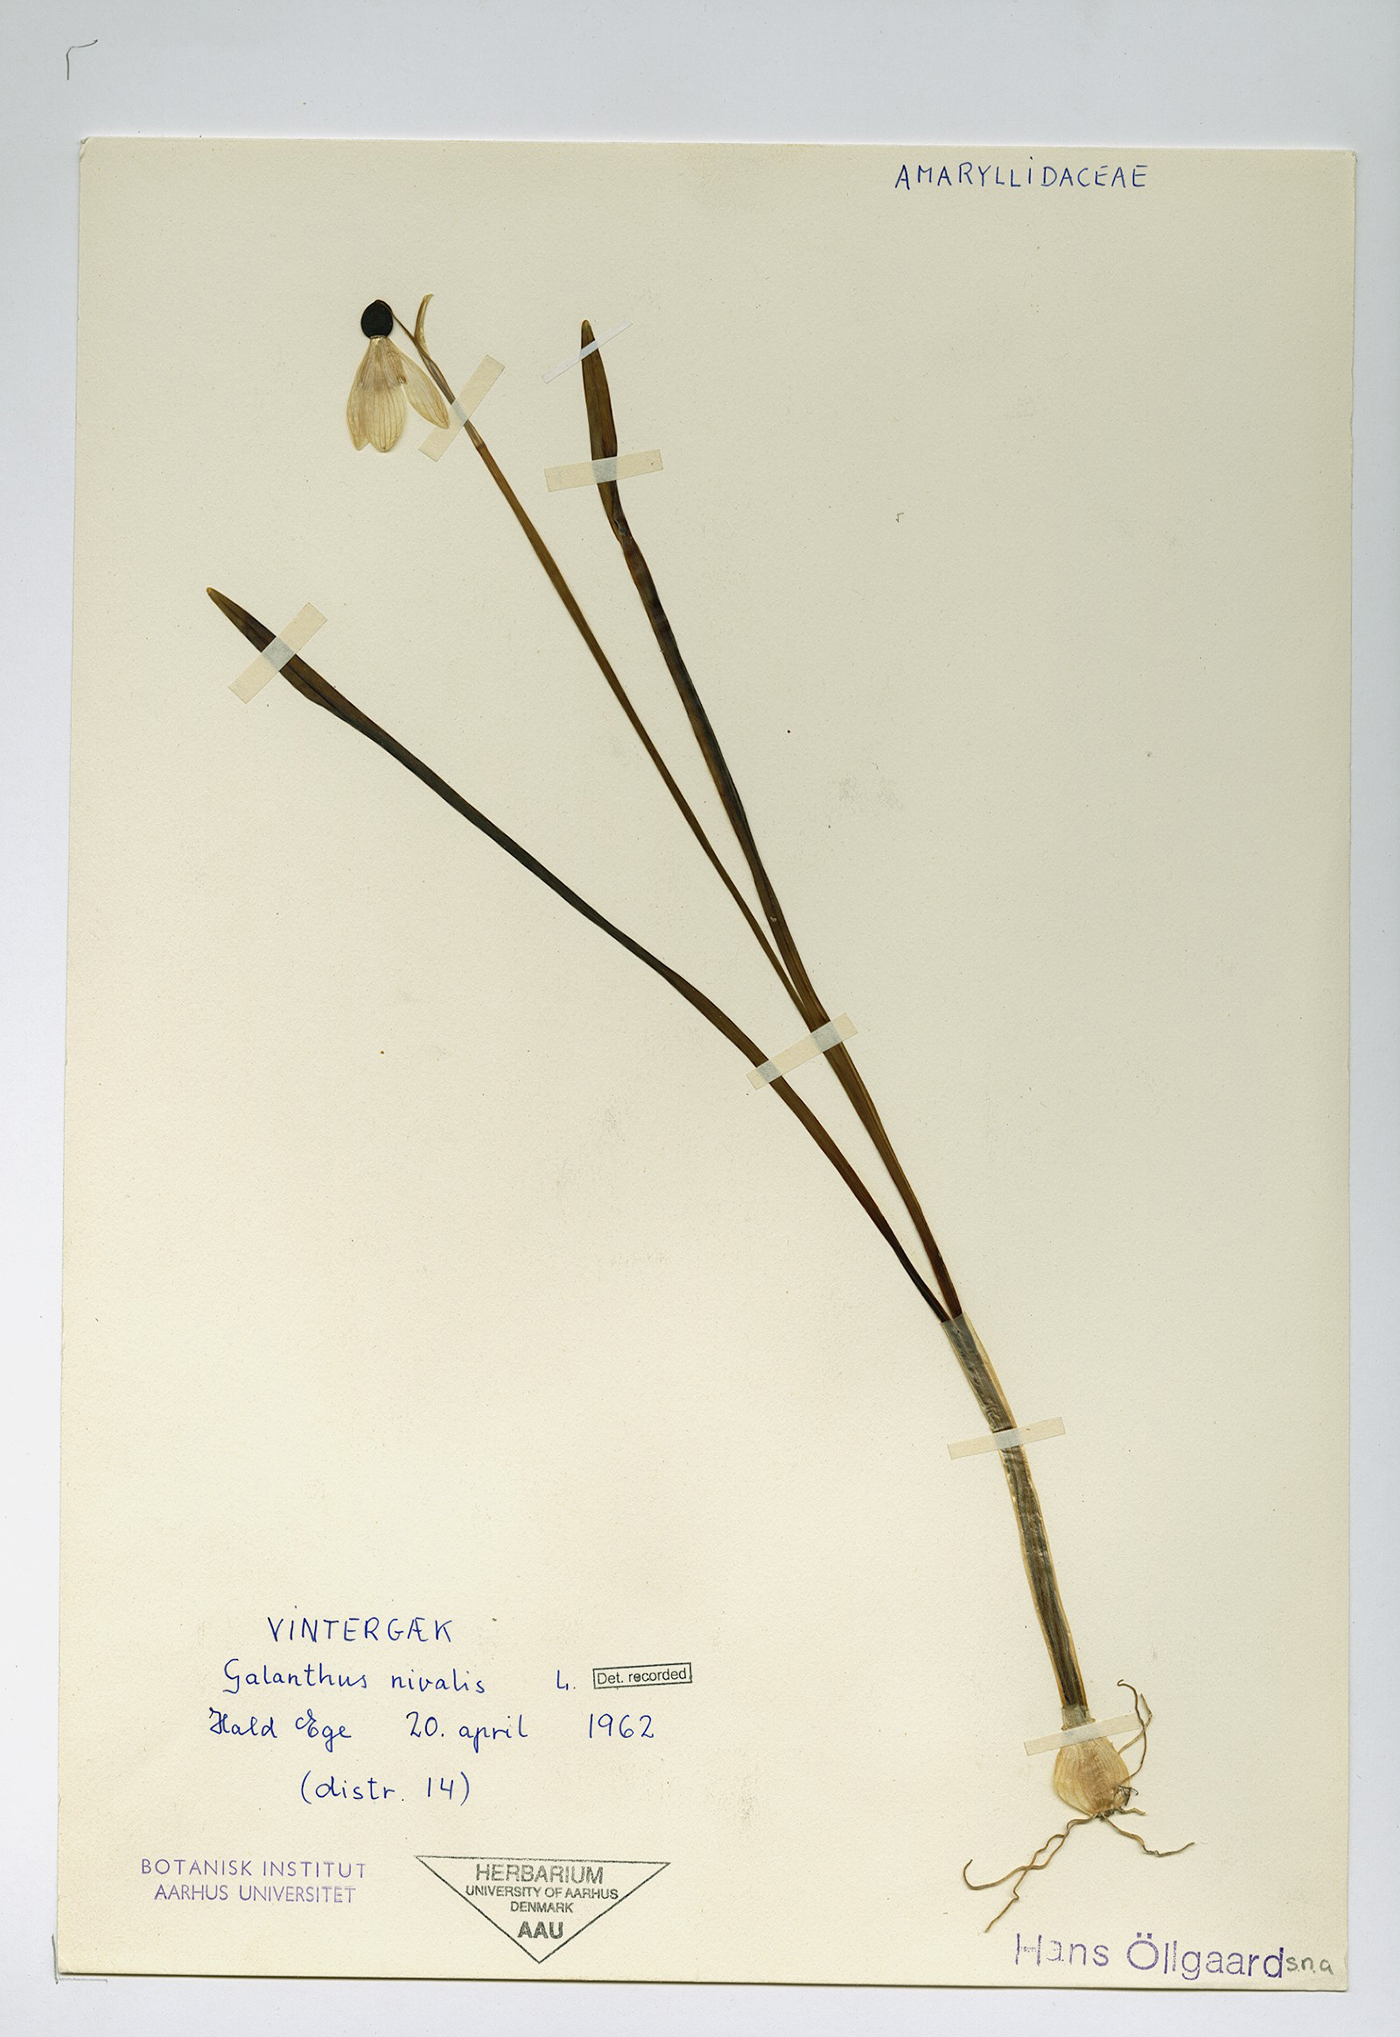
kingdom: Plantae
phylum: Tracheophyta
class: Liliopsida
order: Asparagales
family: Amaryllidaceae
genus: Galanthus
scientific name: Galanthus nivalis
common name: Snowdrop
